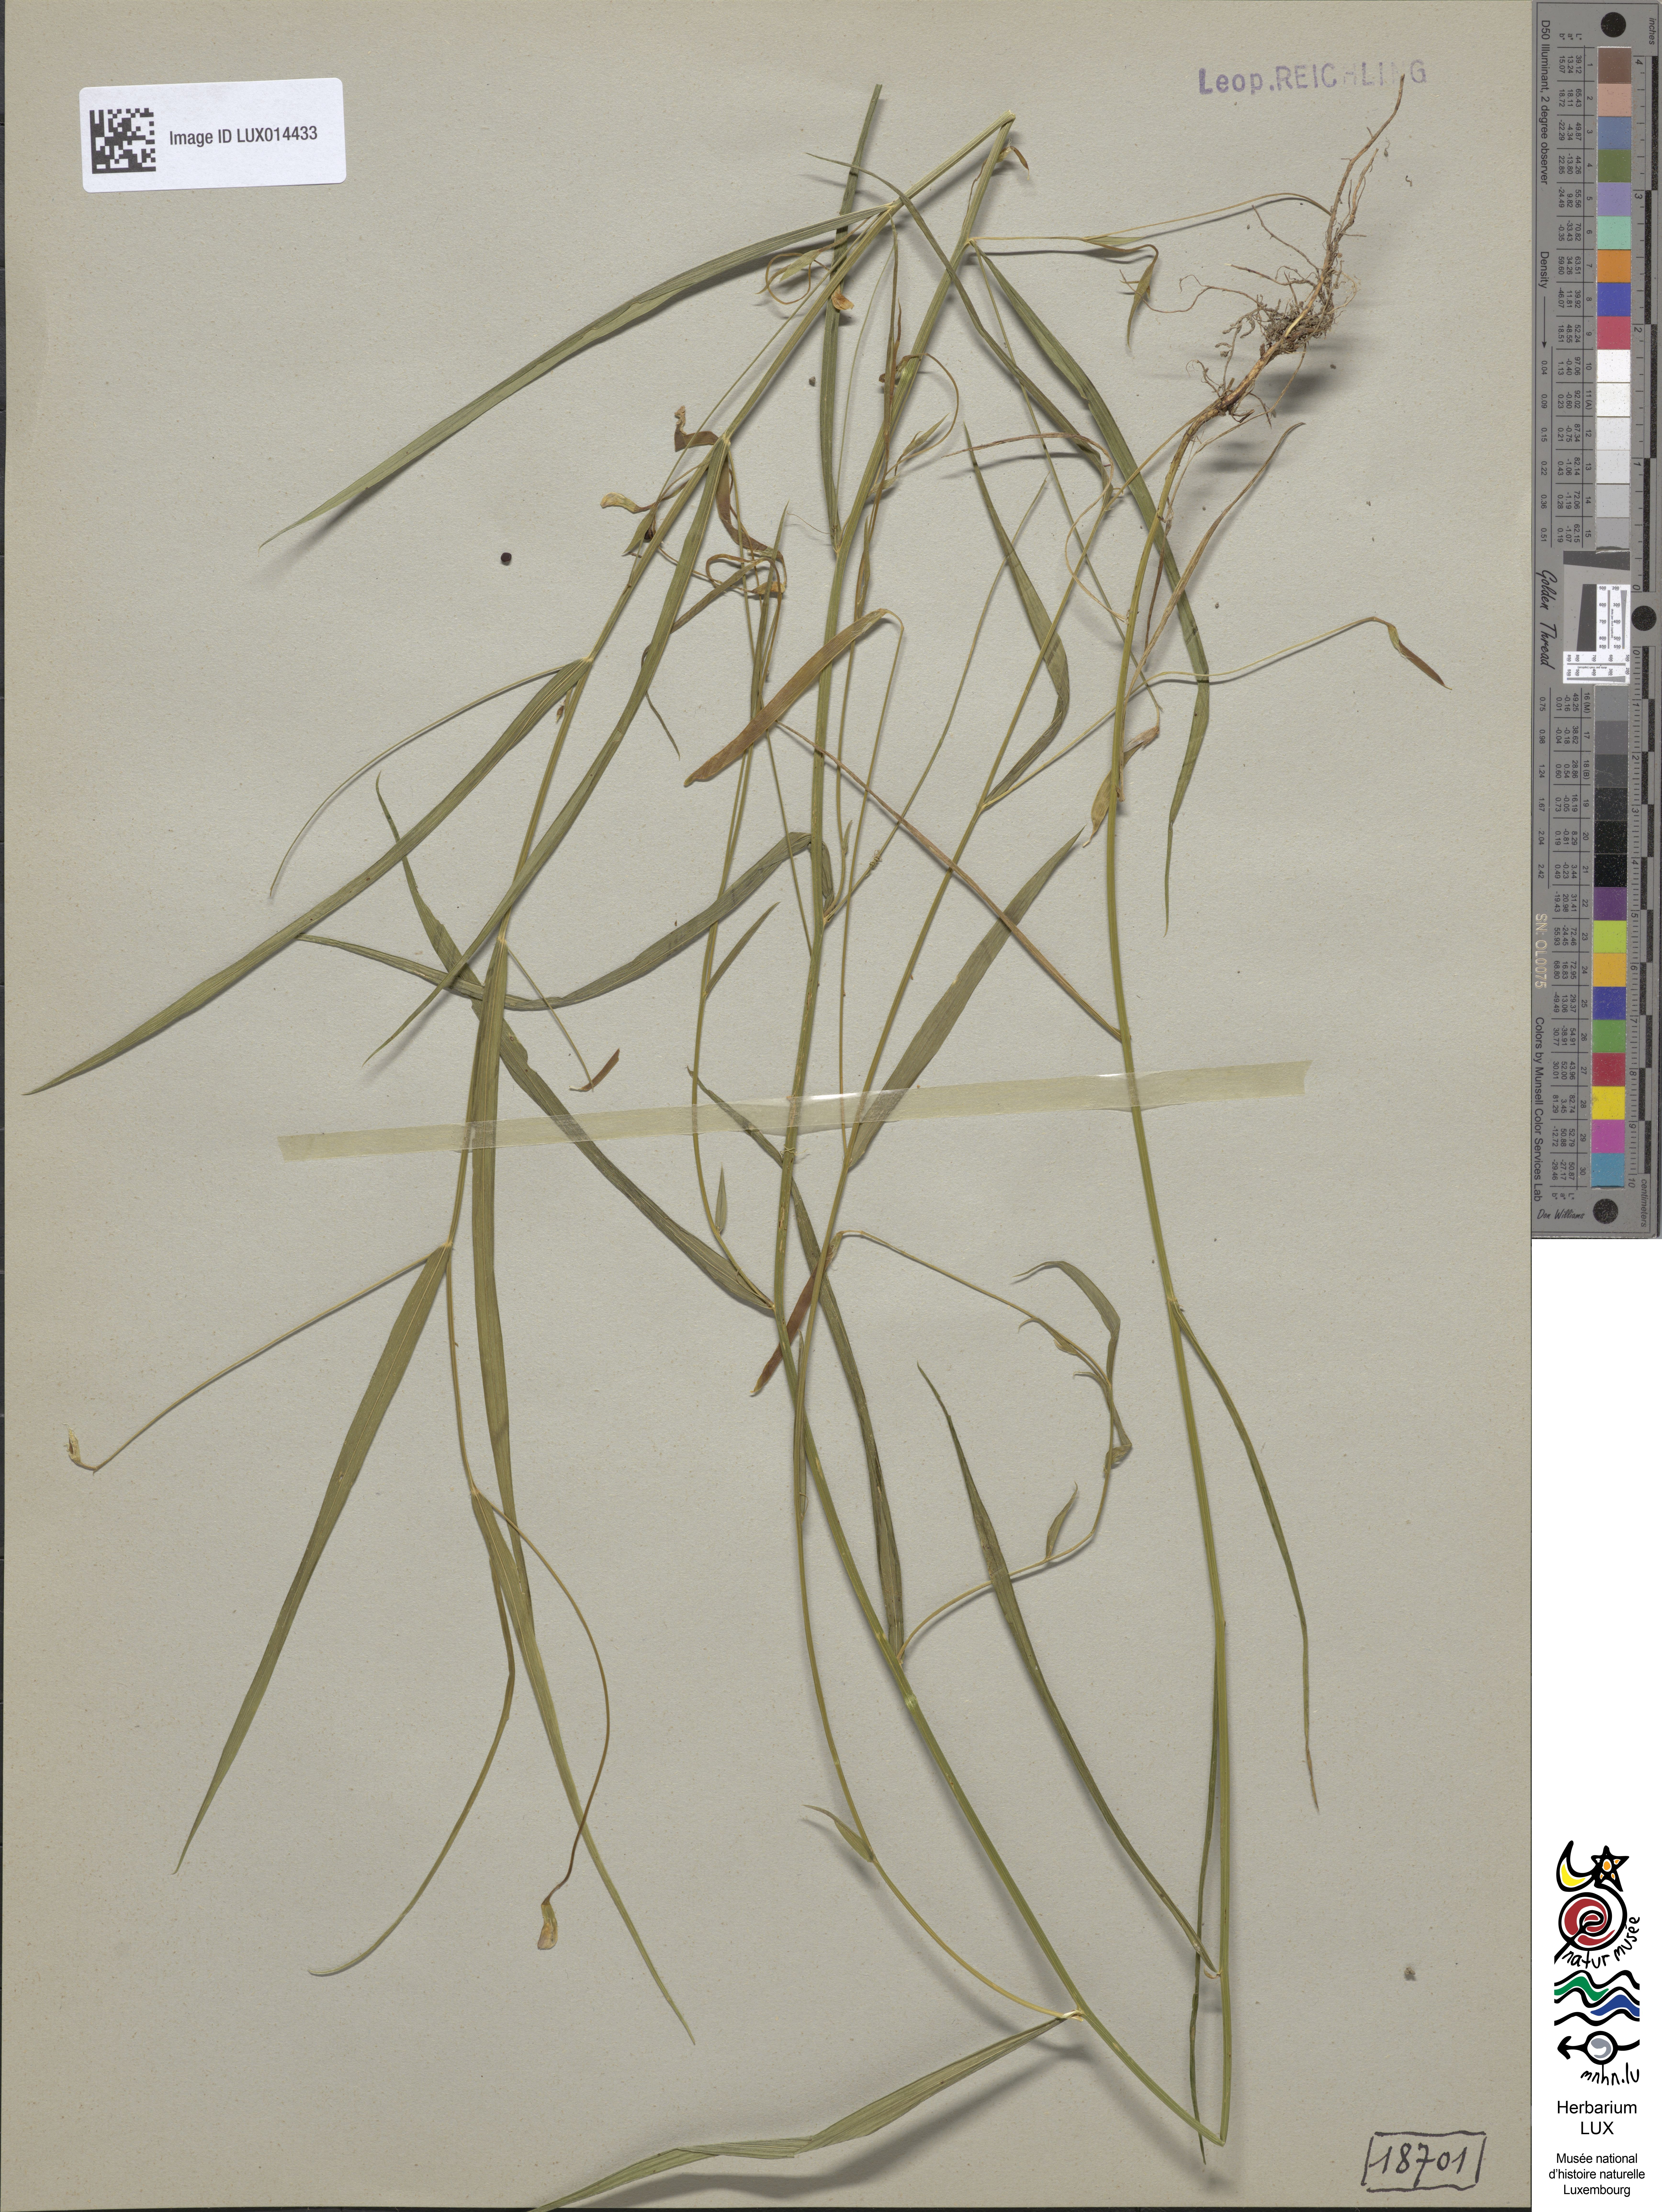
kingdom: Plantae
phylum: Tracheophyta
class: Magnoliopsida
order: Fabales
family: Fabaceae
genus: Lathyrus
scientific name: Lathyrus nissolia
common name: Grass vetchling
